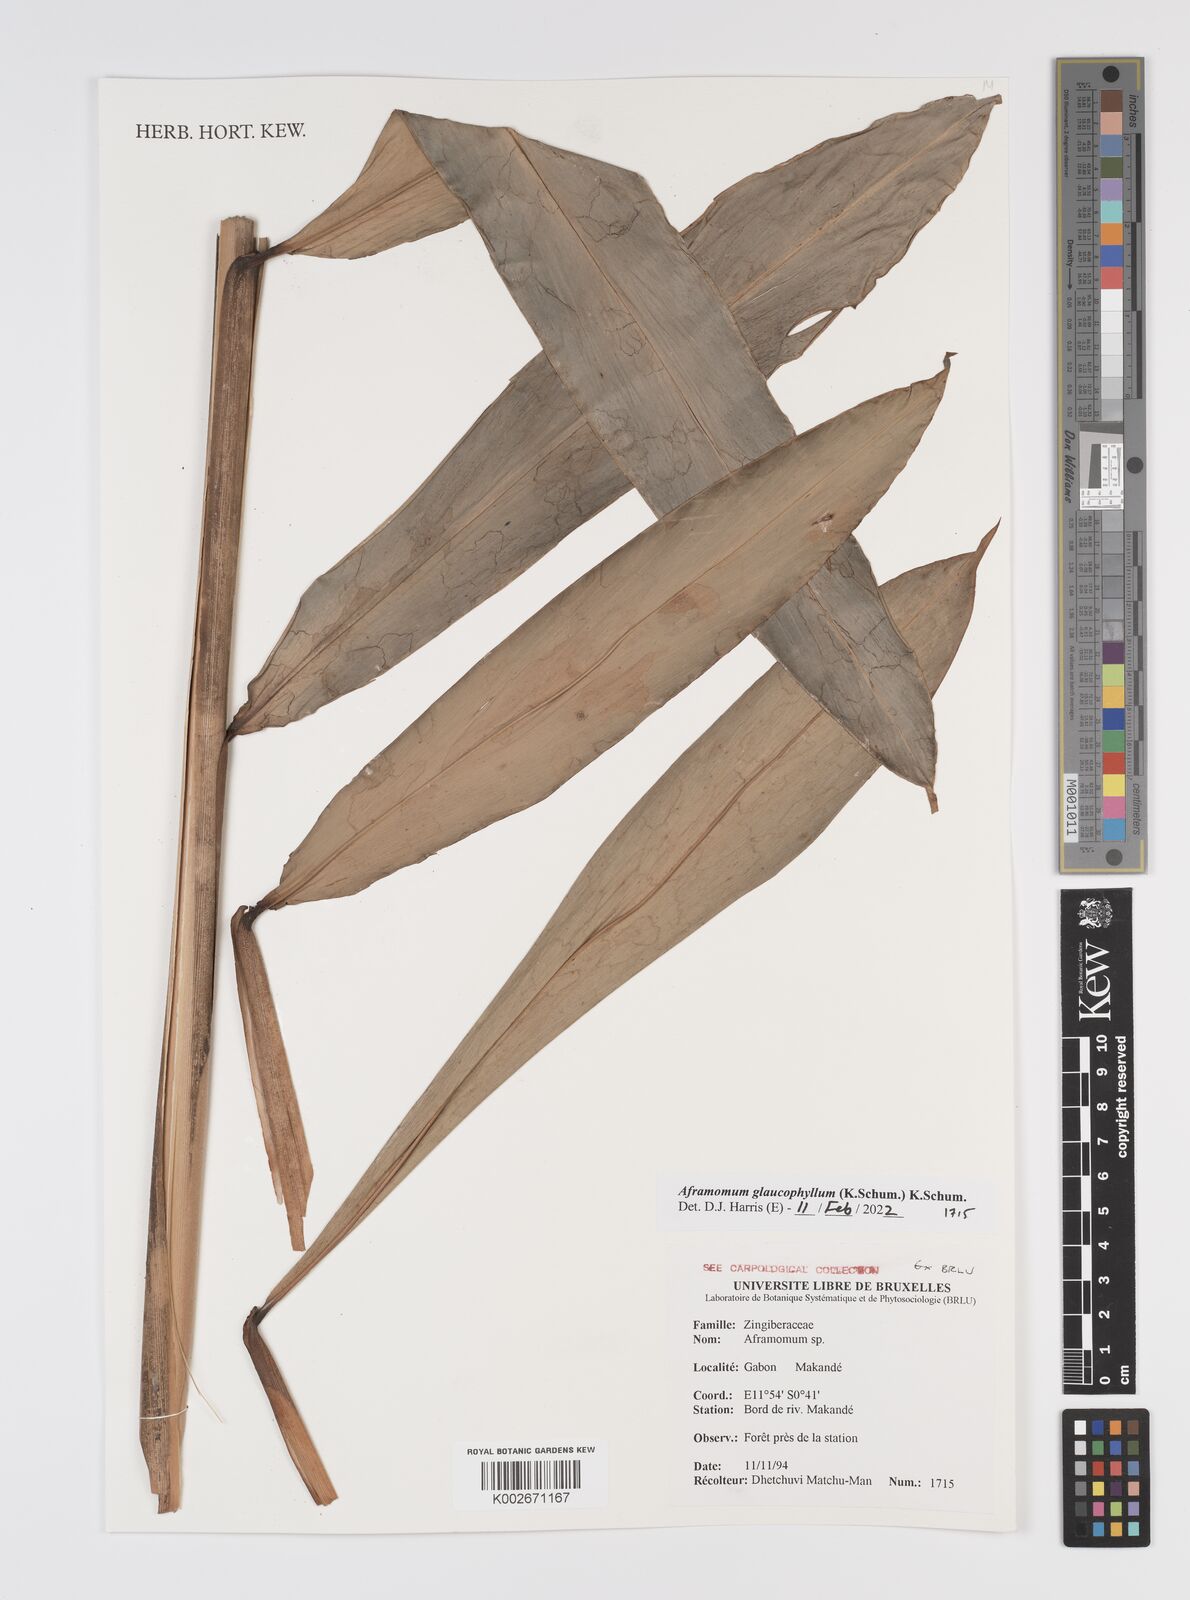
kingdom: Plantae
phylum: Tracheophyta
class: Liliopsida
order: Zingiberales
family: Zingiberaceae
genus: Aframomum
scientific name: Aframomum glaucophyllum
